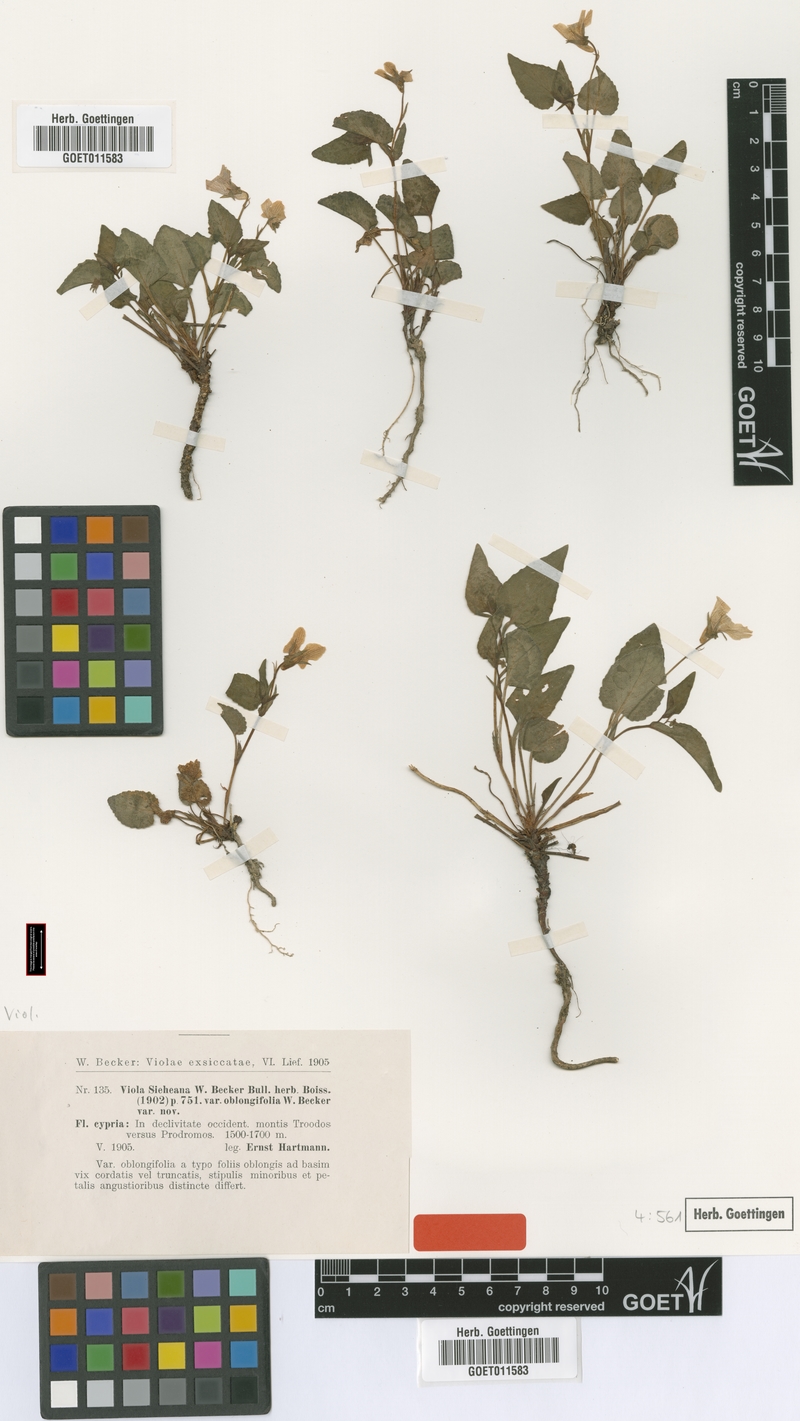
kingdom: Plantae
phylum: Tracheophyta
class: Magnoliopsida
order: Malpighiales
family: Violaceae
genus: Viola
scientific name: Viola sieheana
